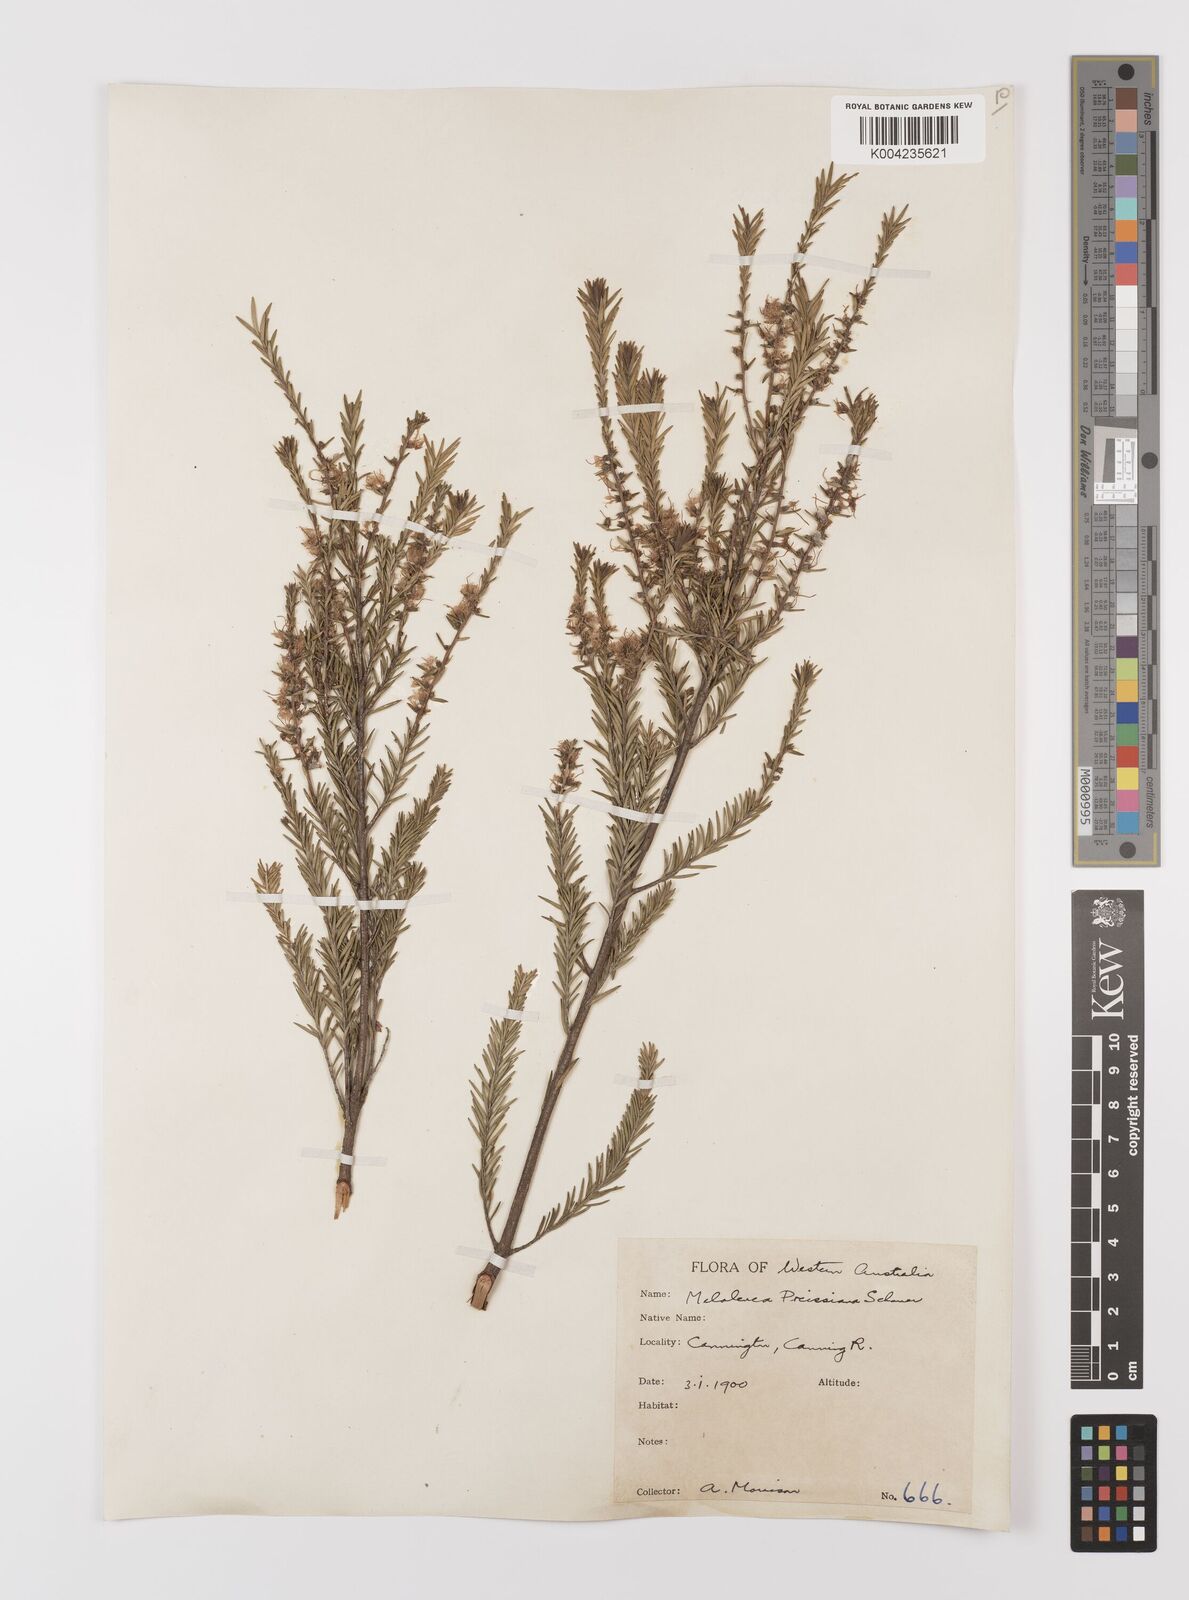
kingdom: Plantae
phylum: Tracheophyta
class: Magnoliopsida
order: Myrtales
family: Myrtaceae
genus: Melaleuca
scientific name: Melaleuca preissiana
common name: Preiss's paperbark
